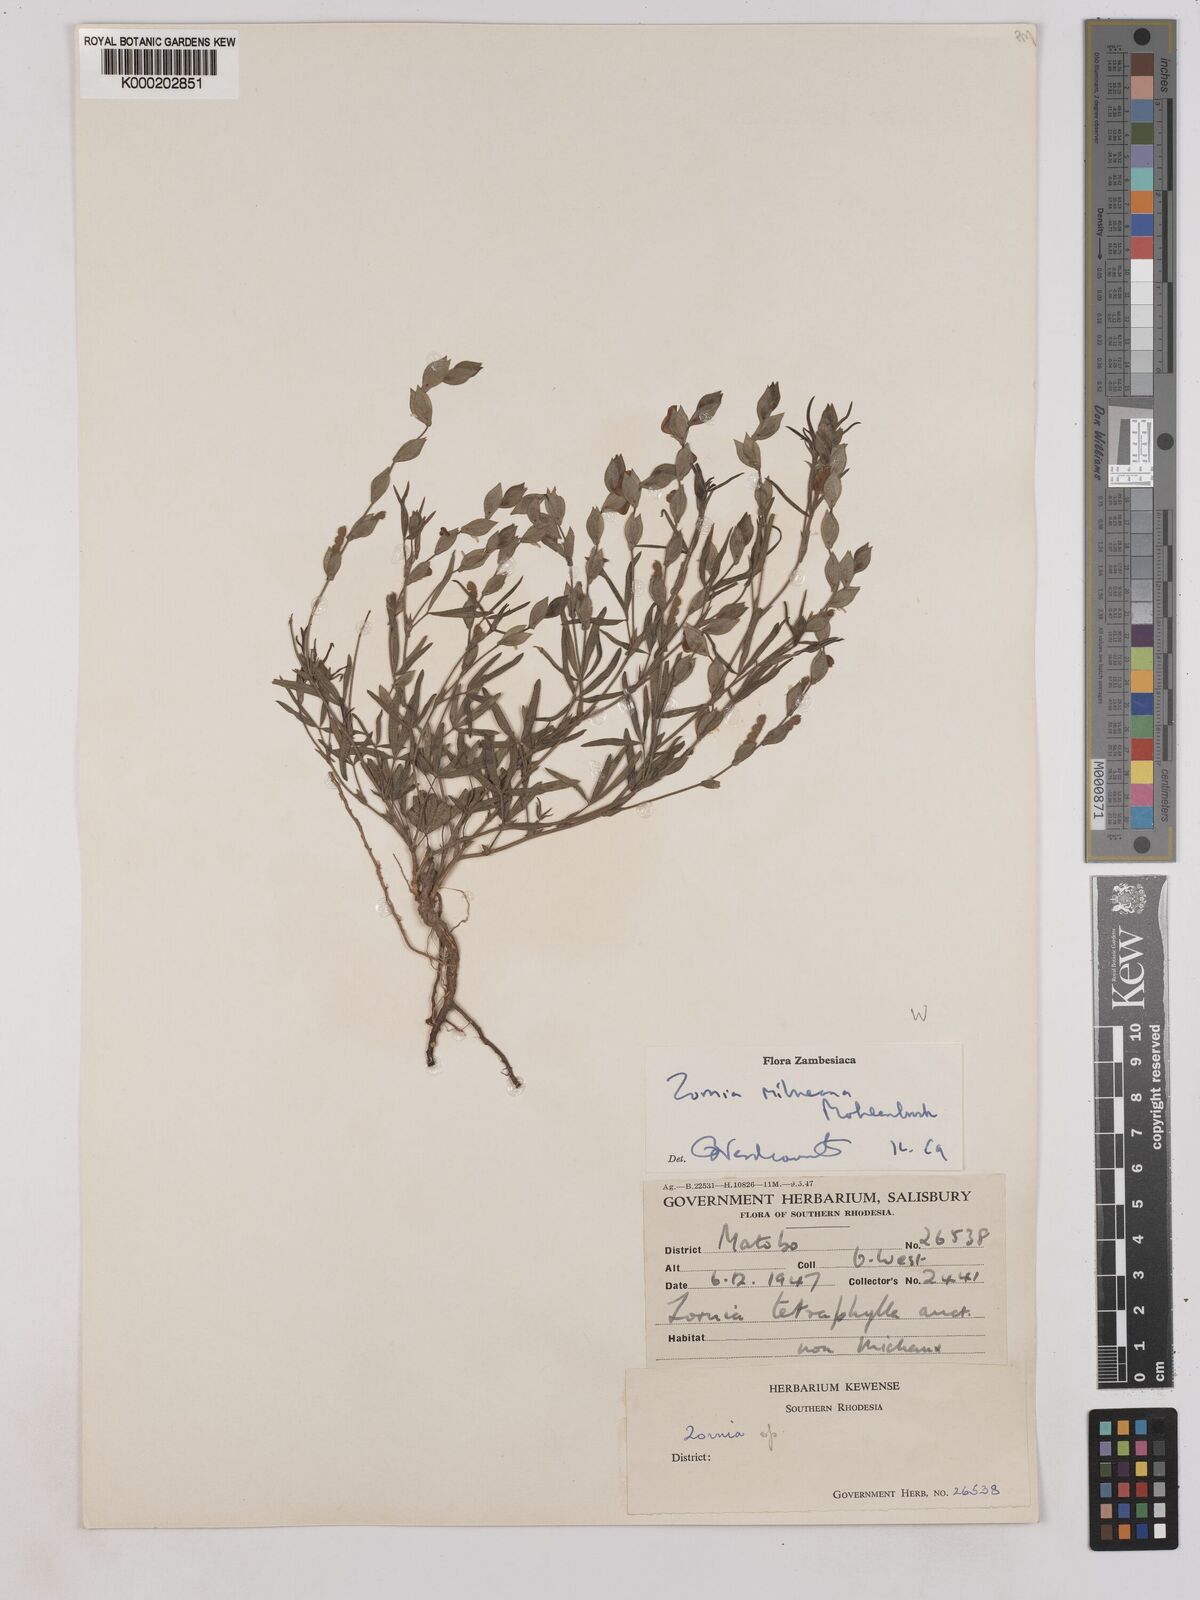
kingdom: Plantae
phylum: Tracheophyta
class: Magnoliopsida
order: Fabales
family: Fabaceae
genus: Zornia
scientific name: Zornia milneana
